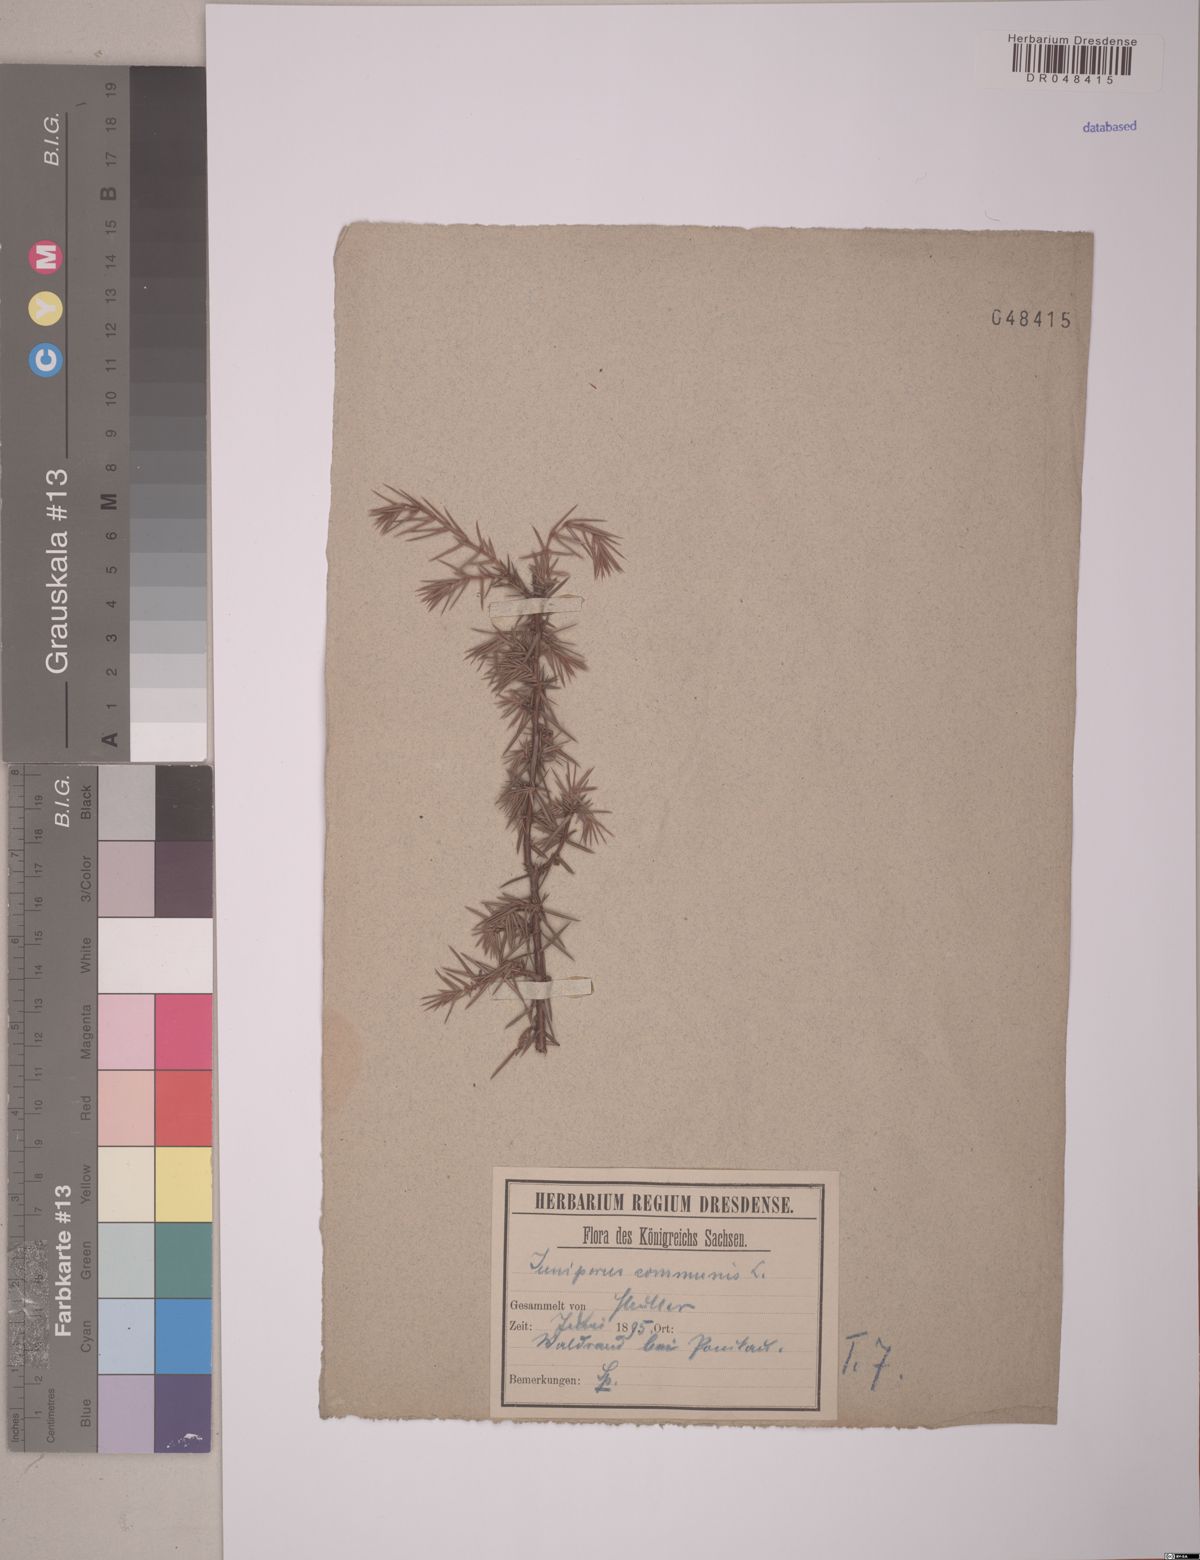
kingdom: Plantae
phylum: Tracheophyta
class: Pinopsida
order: Pinales
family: Cupressaceae
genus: Juniperus
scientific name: Juniperus communis
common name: Common juniper
